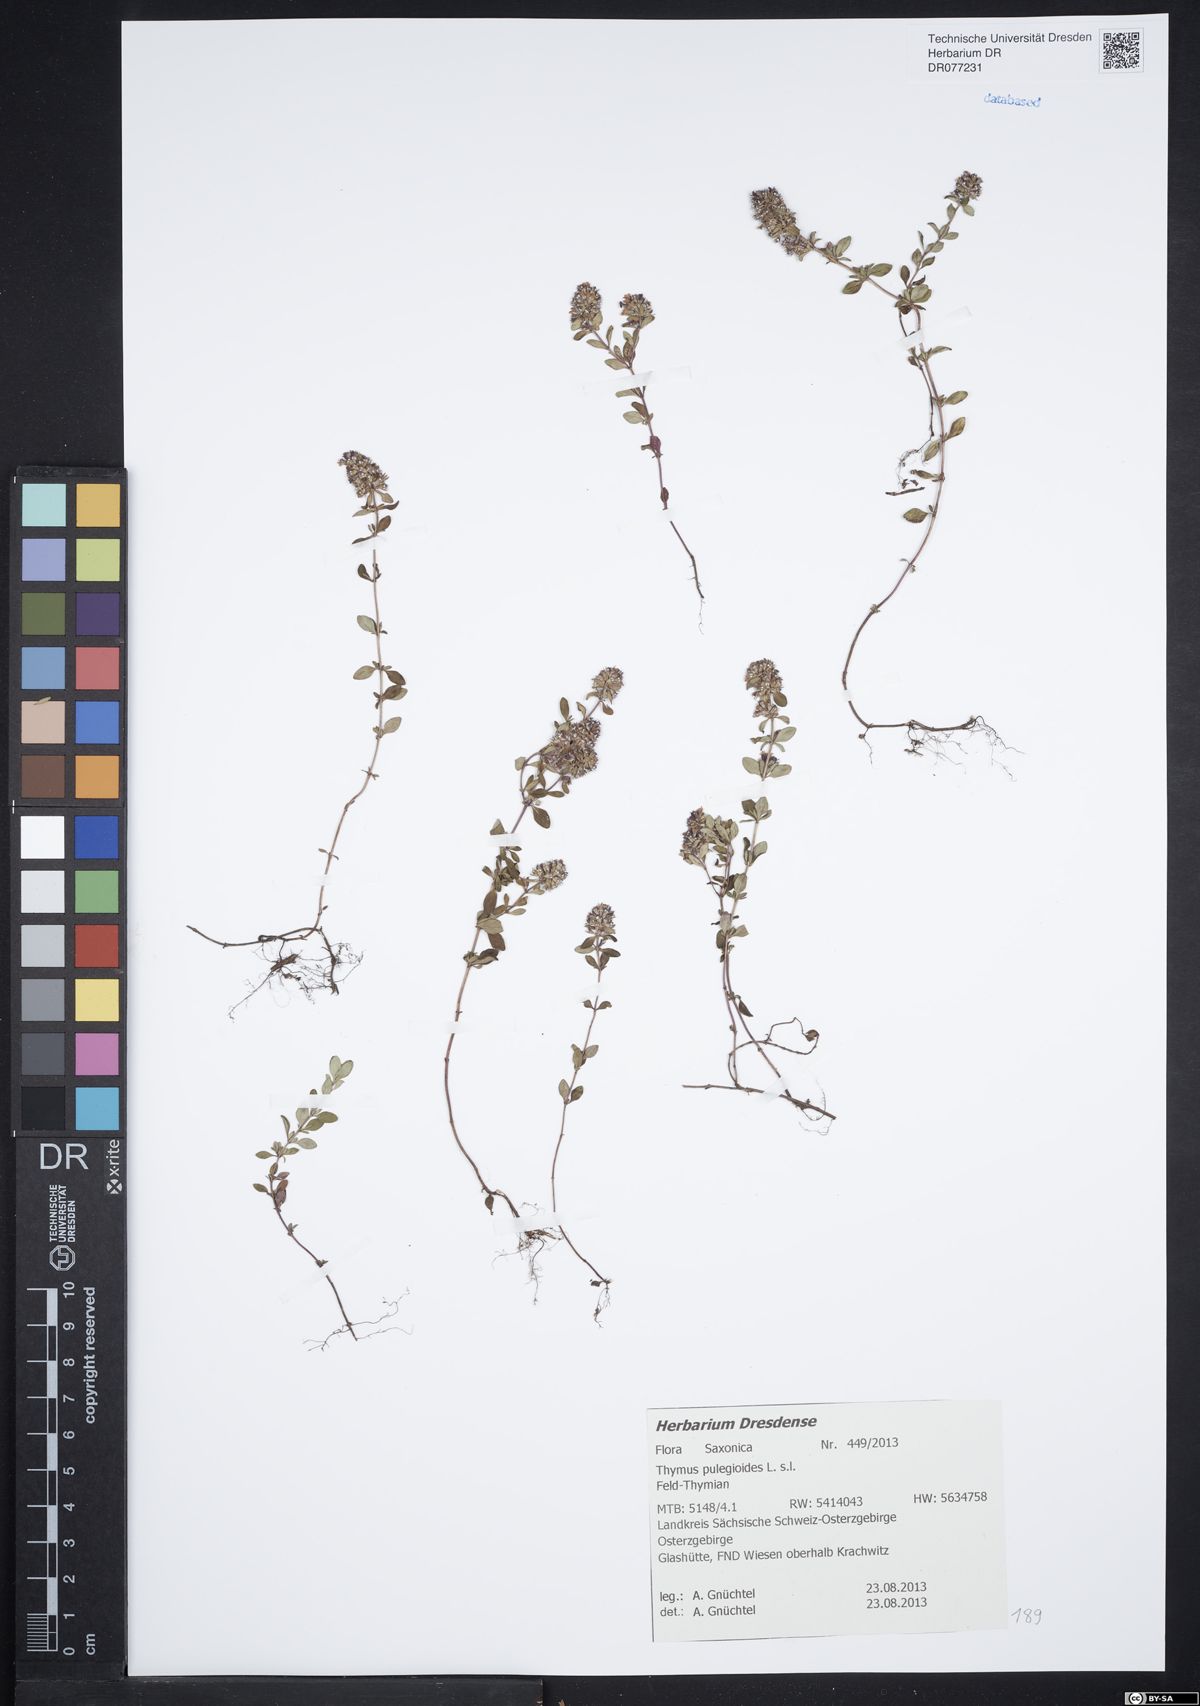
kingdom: Plantae
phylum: Tracheophyta
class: Magnoliopsida
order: Lamiales
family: Lamiaceae
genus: Thymus
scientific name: Thymus pulegioides
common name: Large thyme
